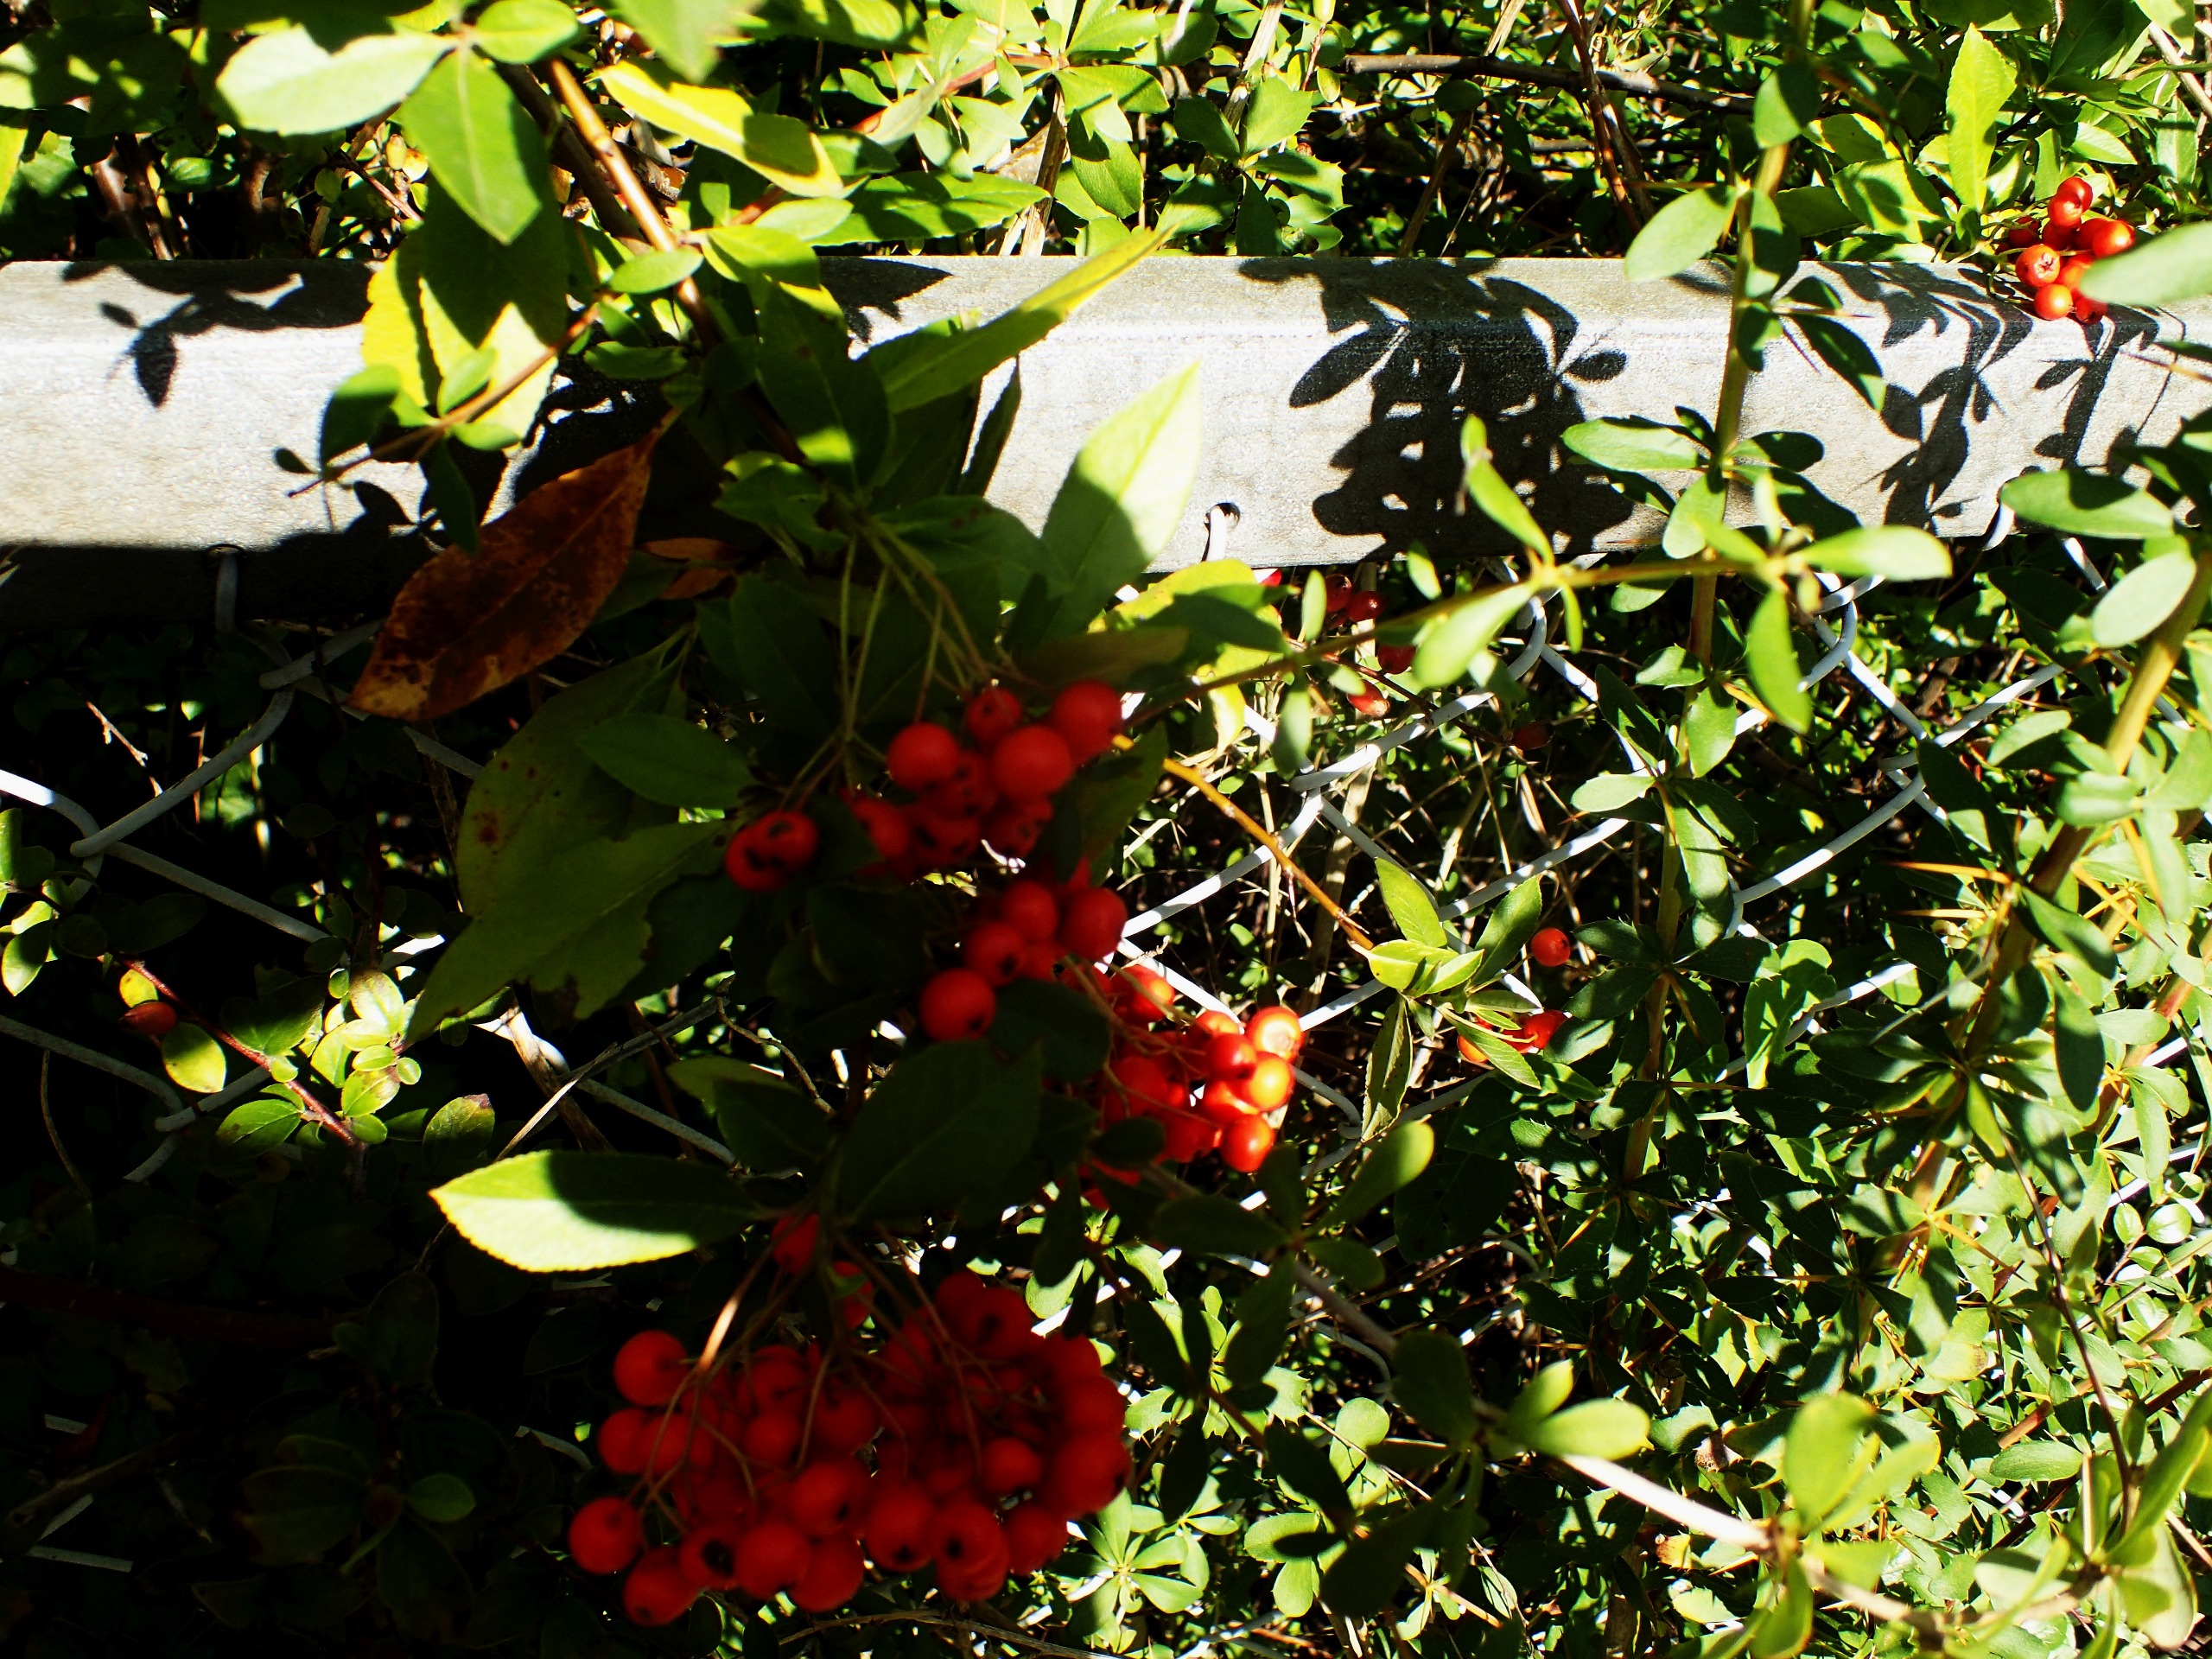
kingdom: Plantae
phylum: Tracheophyta
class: Magnoliopsida
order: Rosales
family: Rosaceae
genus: Pyracantha
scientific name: Pyracantha
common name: Ildtornslægten
